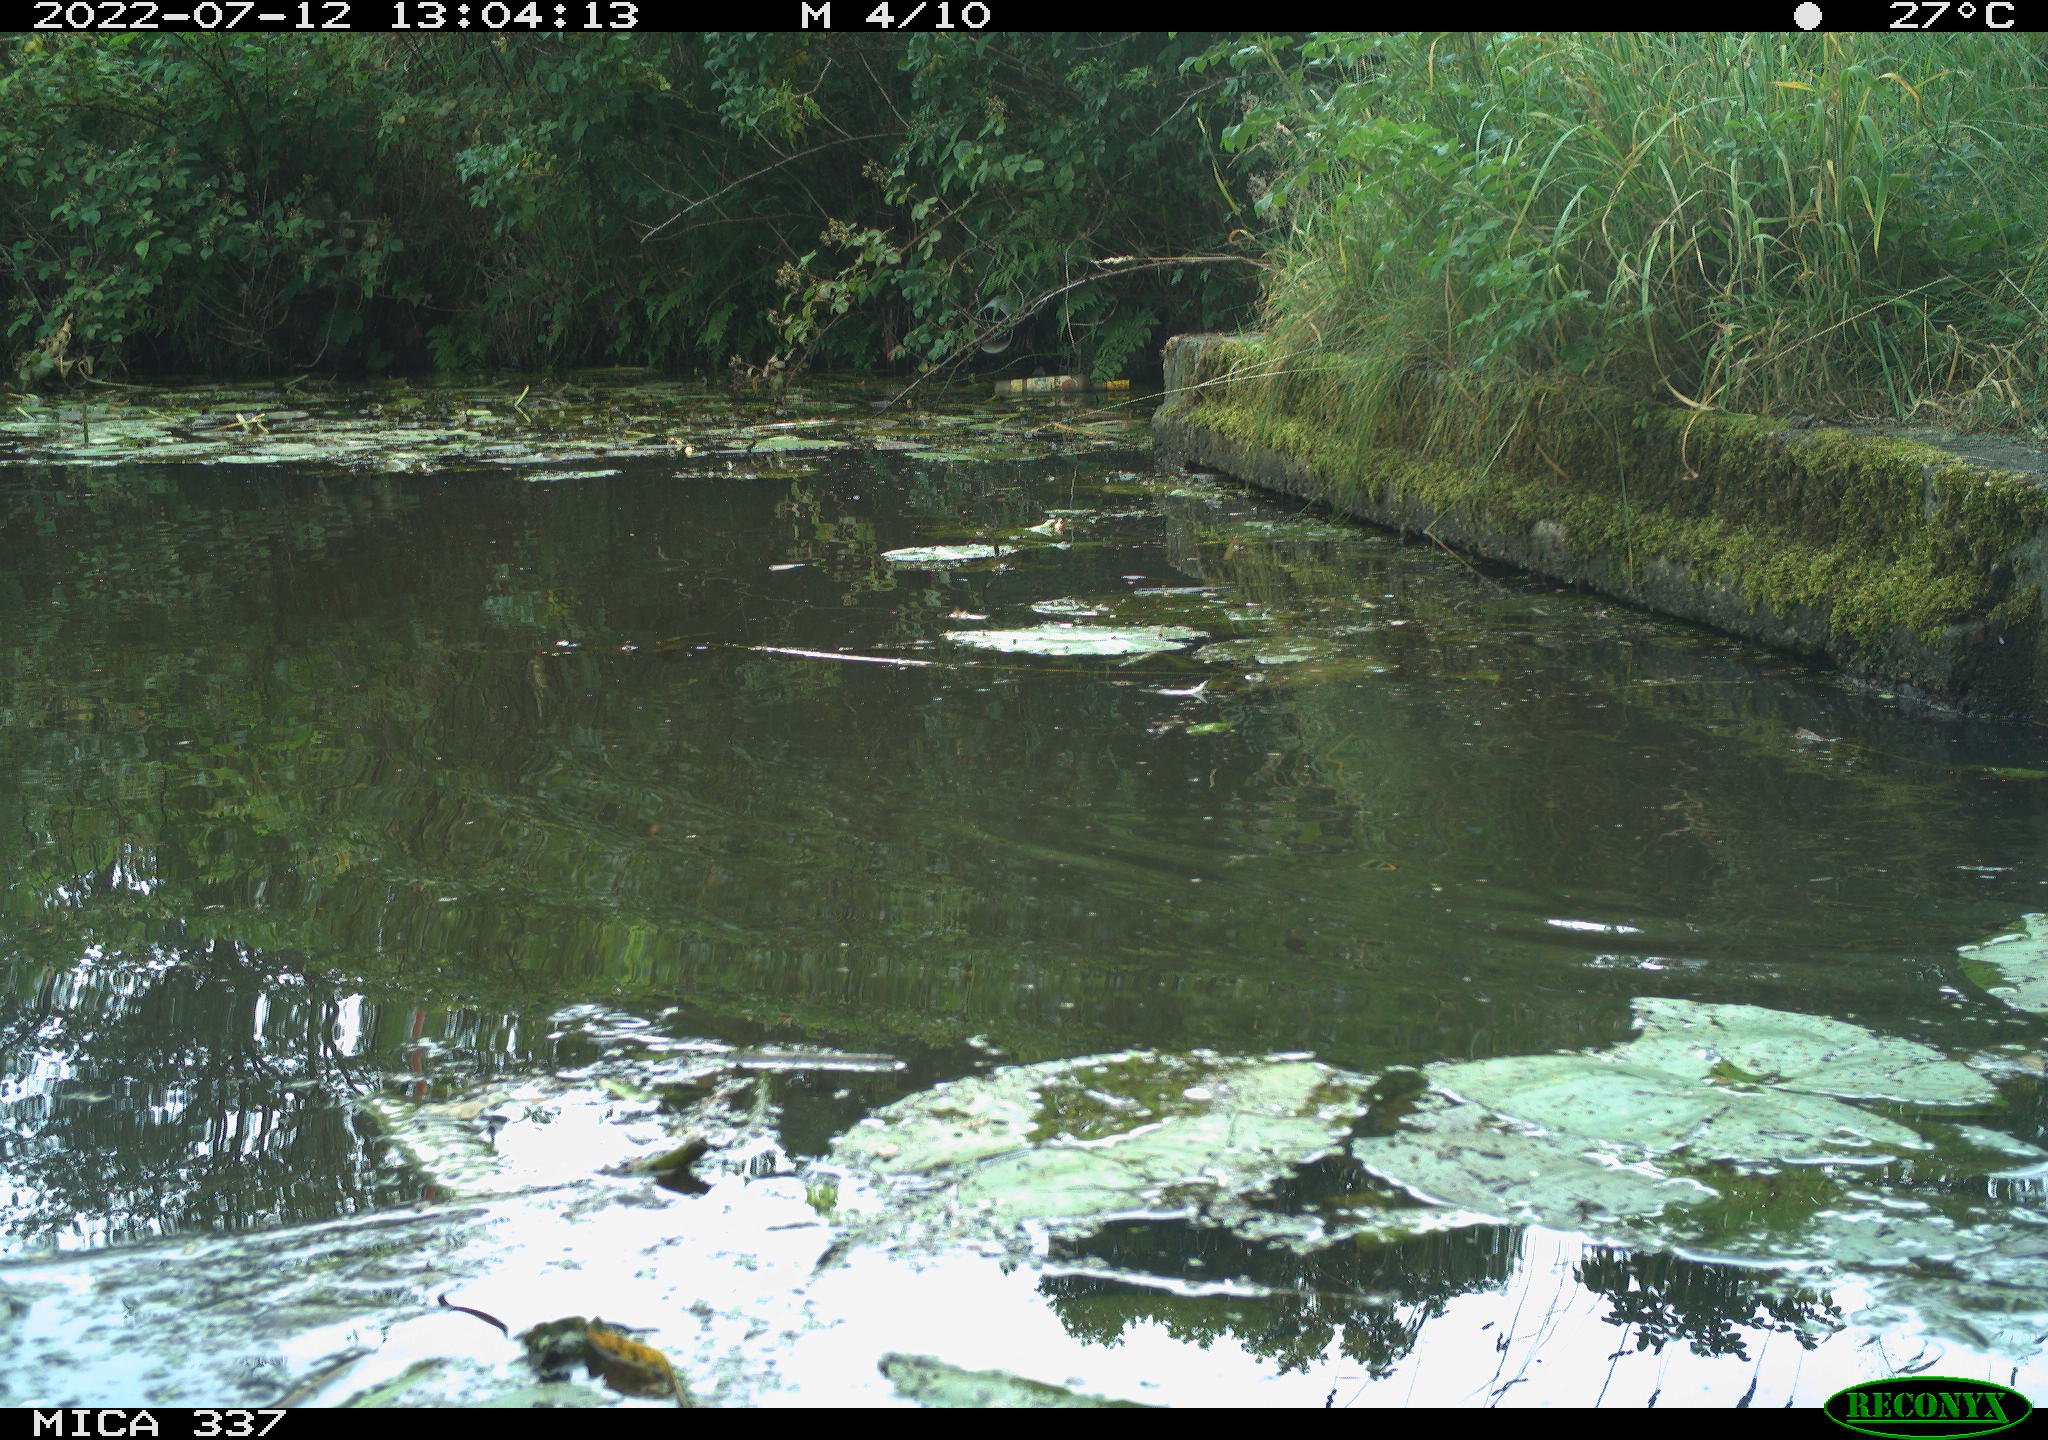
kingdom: Animalia
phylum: Chordata
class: Aves
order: Gruiformes
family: Rallidae
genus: Gallinula
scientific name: Gallinula chloropus
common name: Common moorhen
